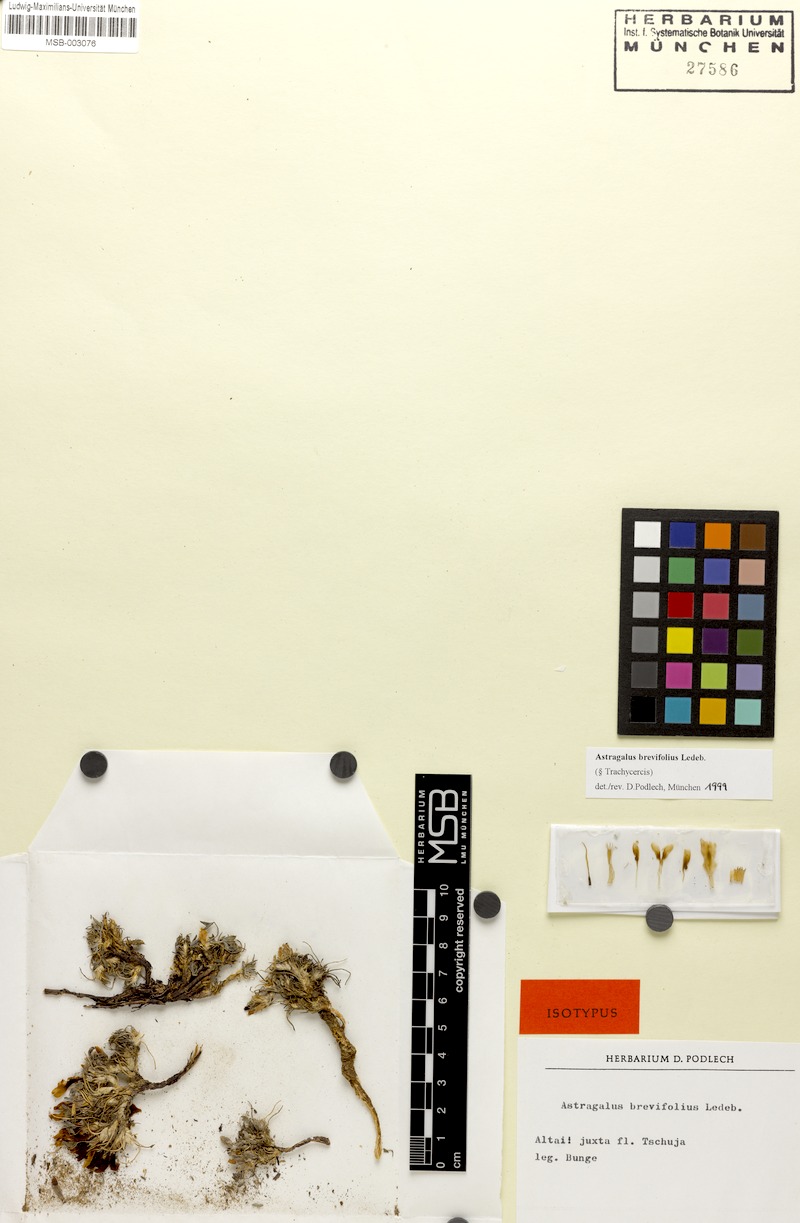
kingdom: Plantae
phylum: Tracheophyta
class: Magnoliopsida
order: Fabales
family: Fabaceae
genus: Astragalus
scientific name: Astragalus brevifolius
